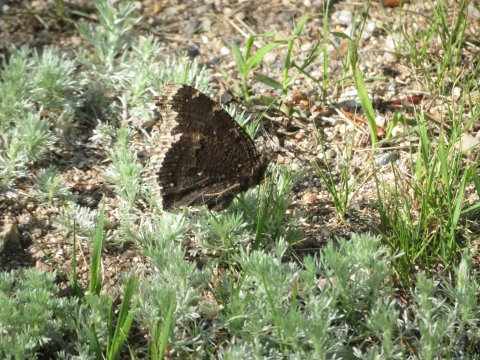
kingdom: Animalia
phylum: Arthropoda
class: Insecta
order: Lepidoptera
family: Nymphalidae
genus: Nymphalis
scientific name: Nymphalis antiopa
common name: Mourning Cloak
